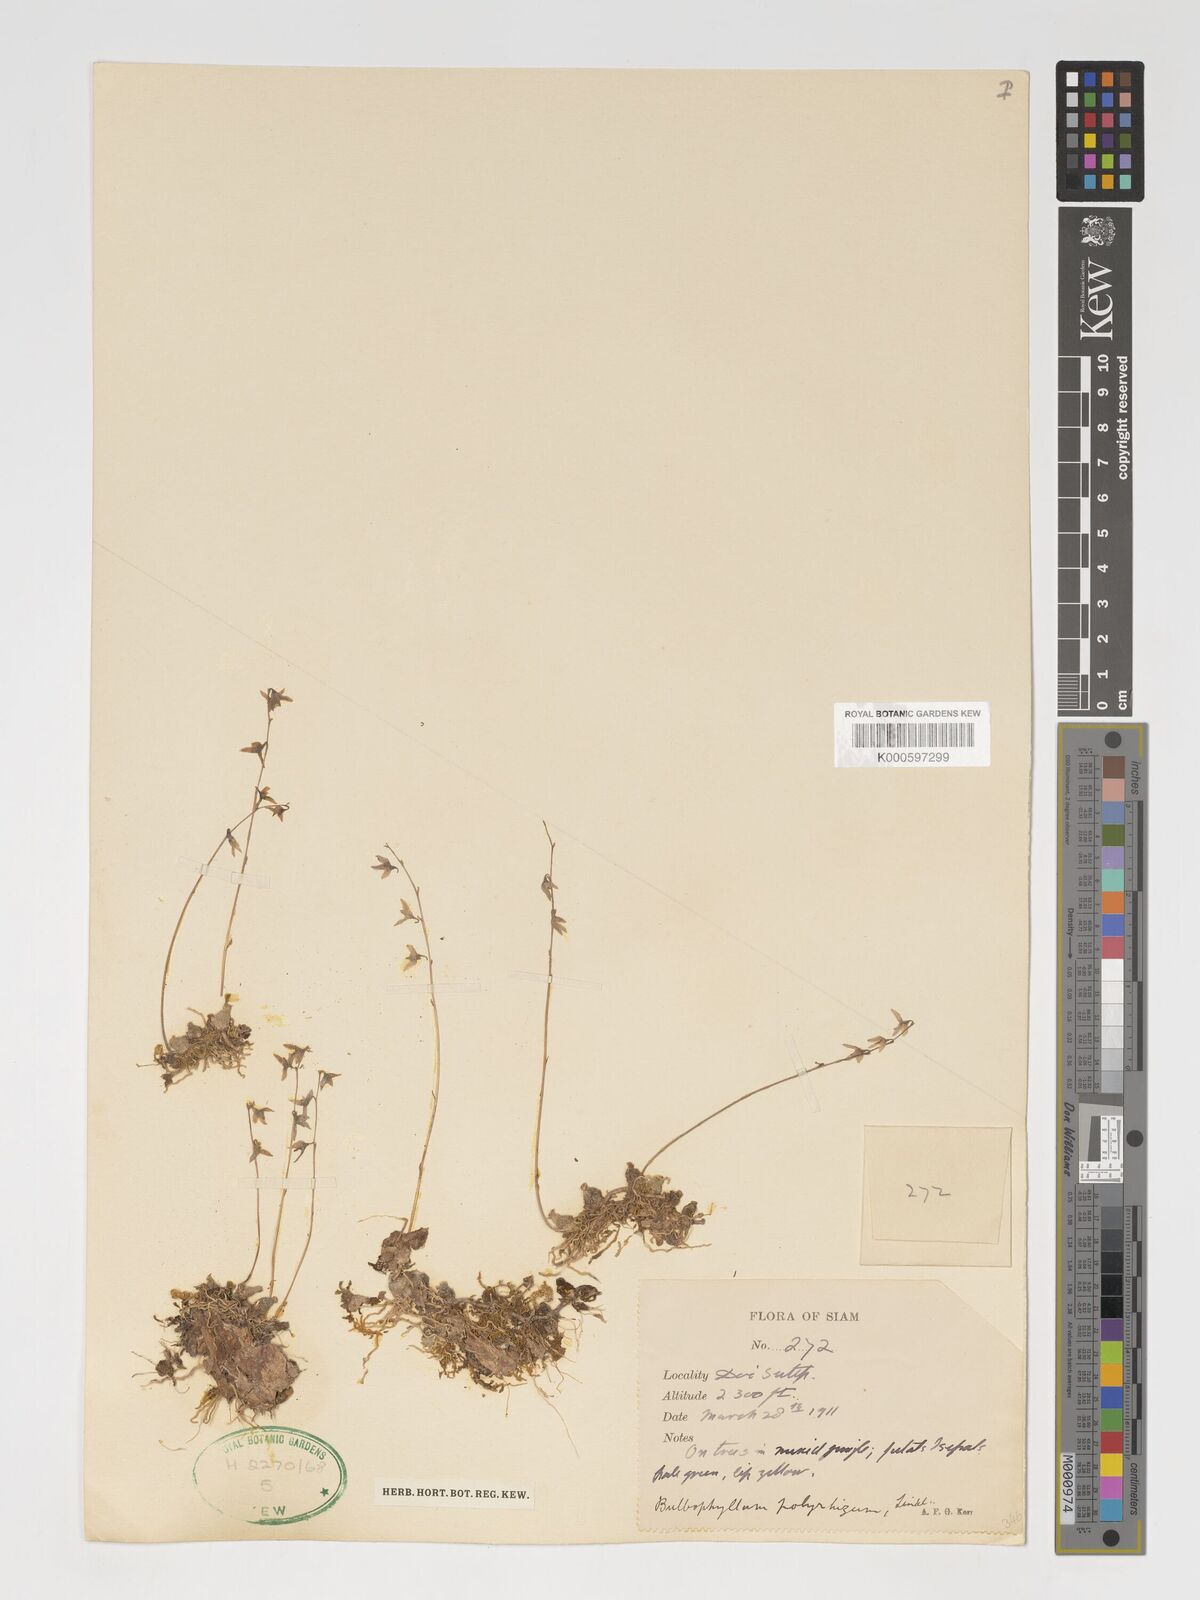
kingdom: Plantae
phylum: Tracheophyta
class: Liliopsida
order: Asparagales
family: Orchidaceae
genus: Bulbophyllum
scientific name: Bulbophyllum polyrrhizum
